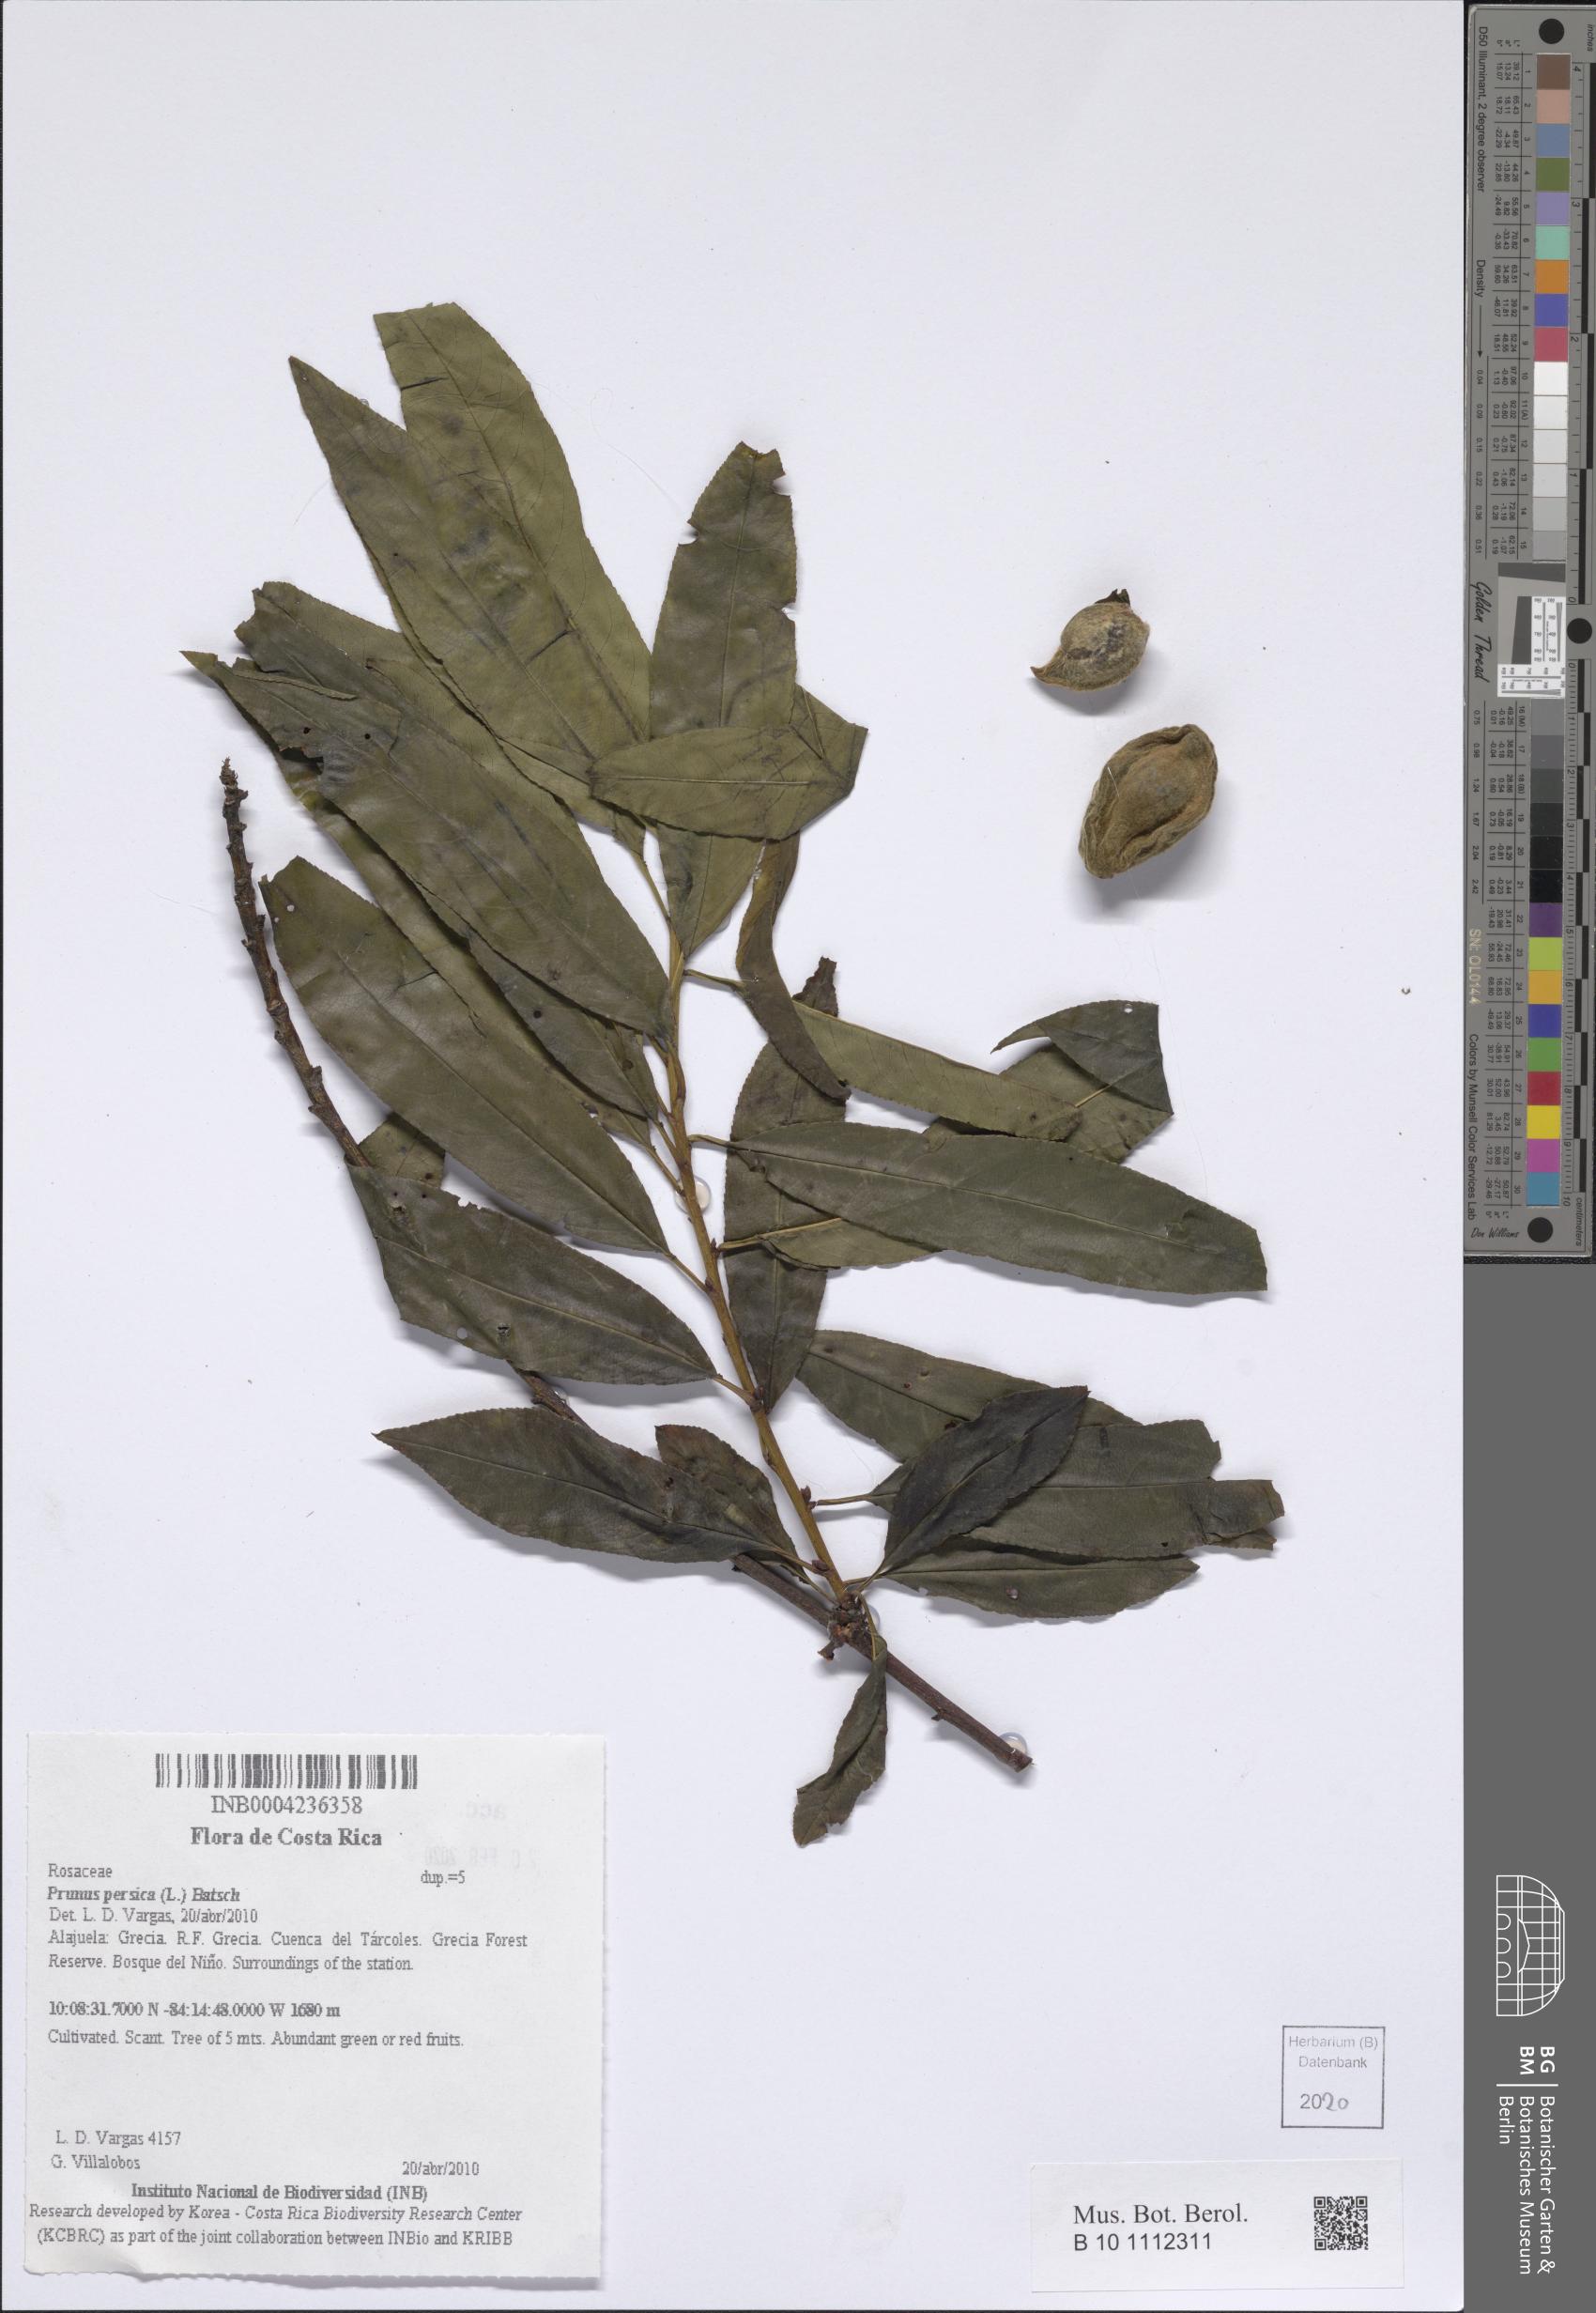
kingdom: Plantae
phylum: Tracheophyta
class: Magnoliopsida
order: Rosales
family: Rosaceae
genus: Prunus
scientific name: Prunus persica
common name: Peach
